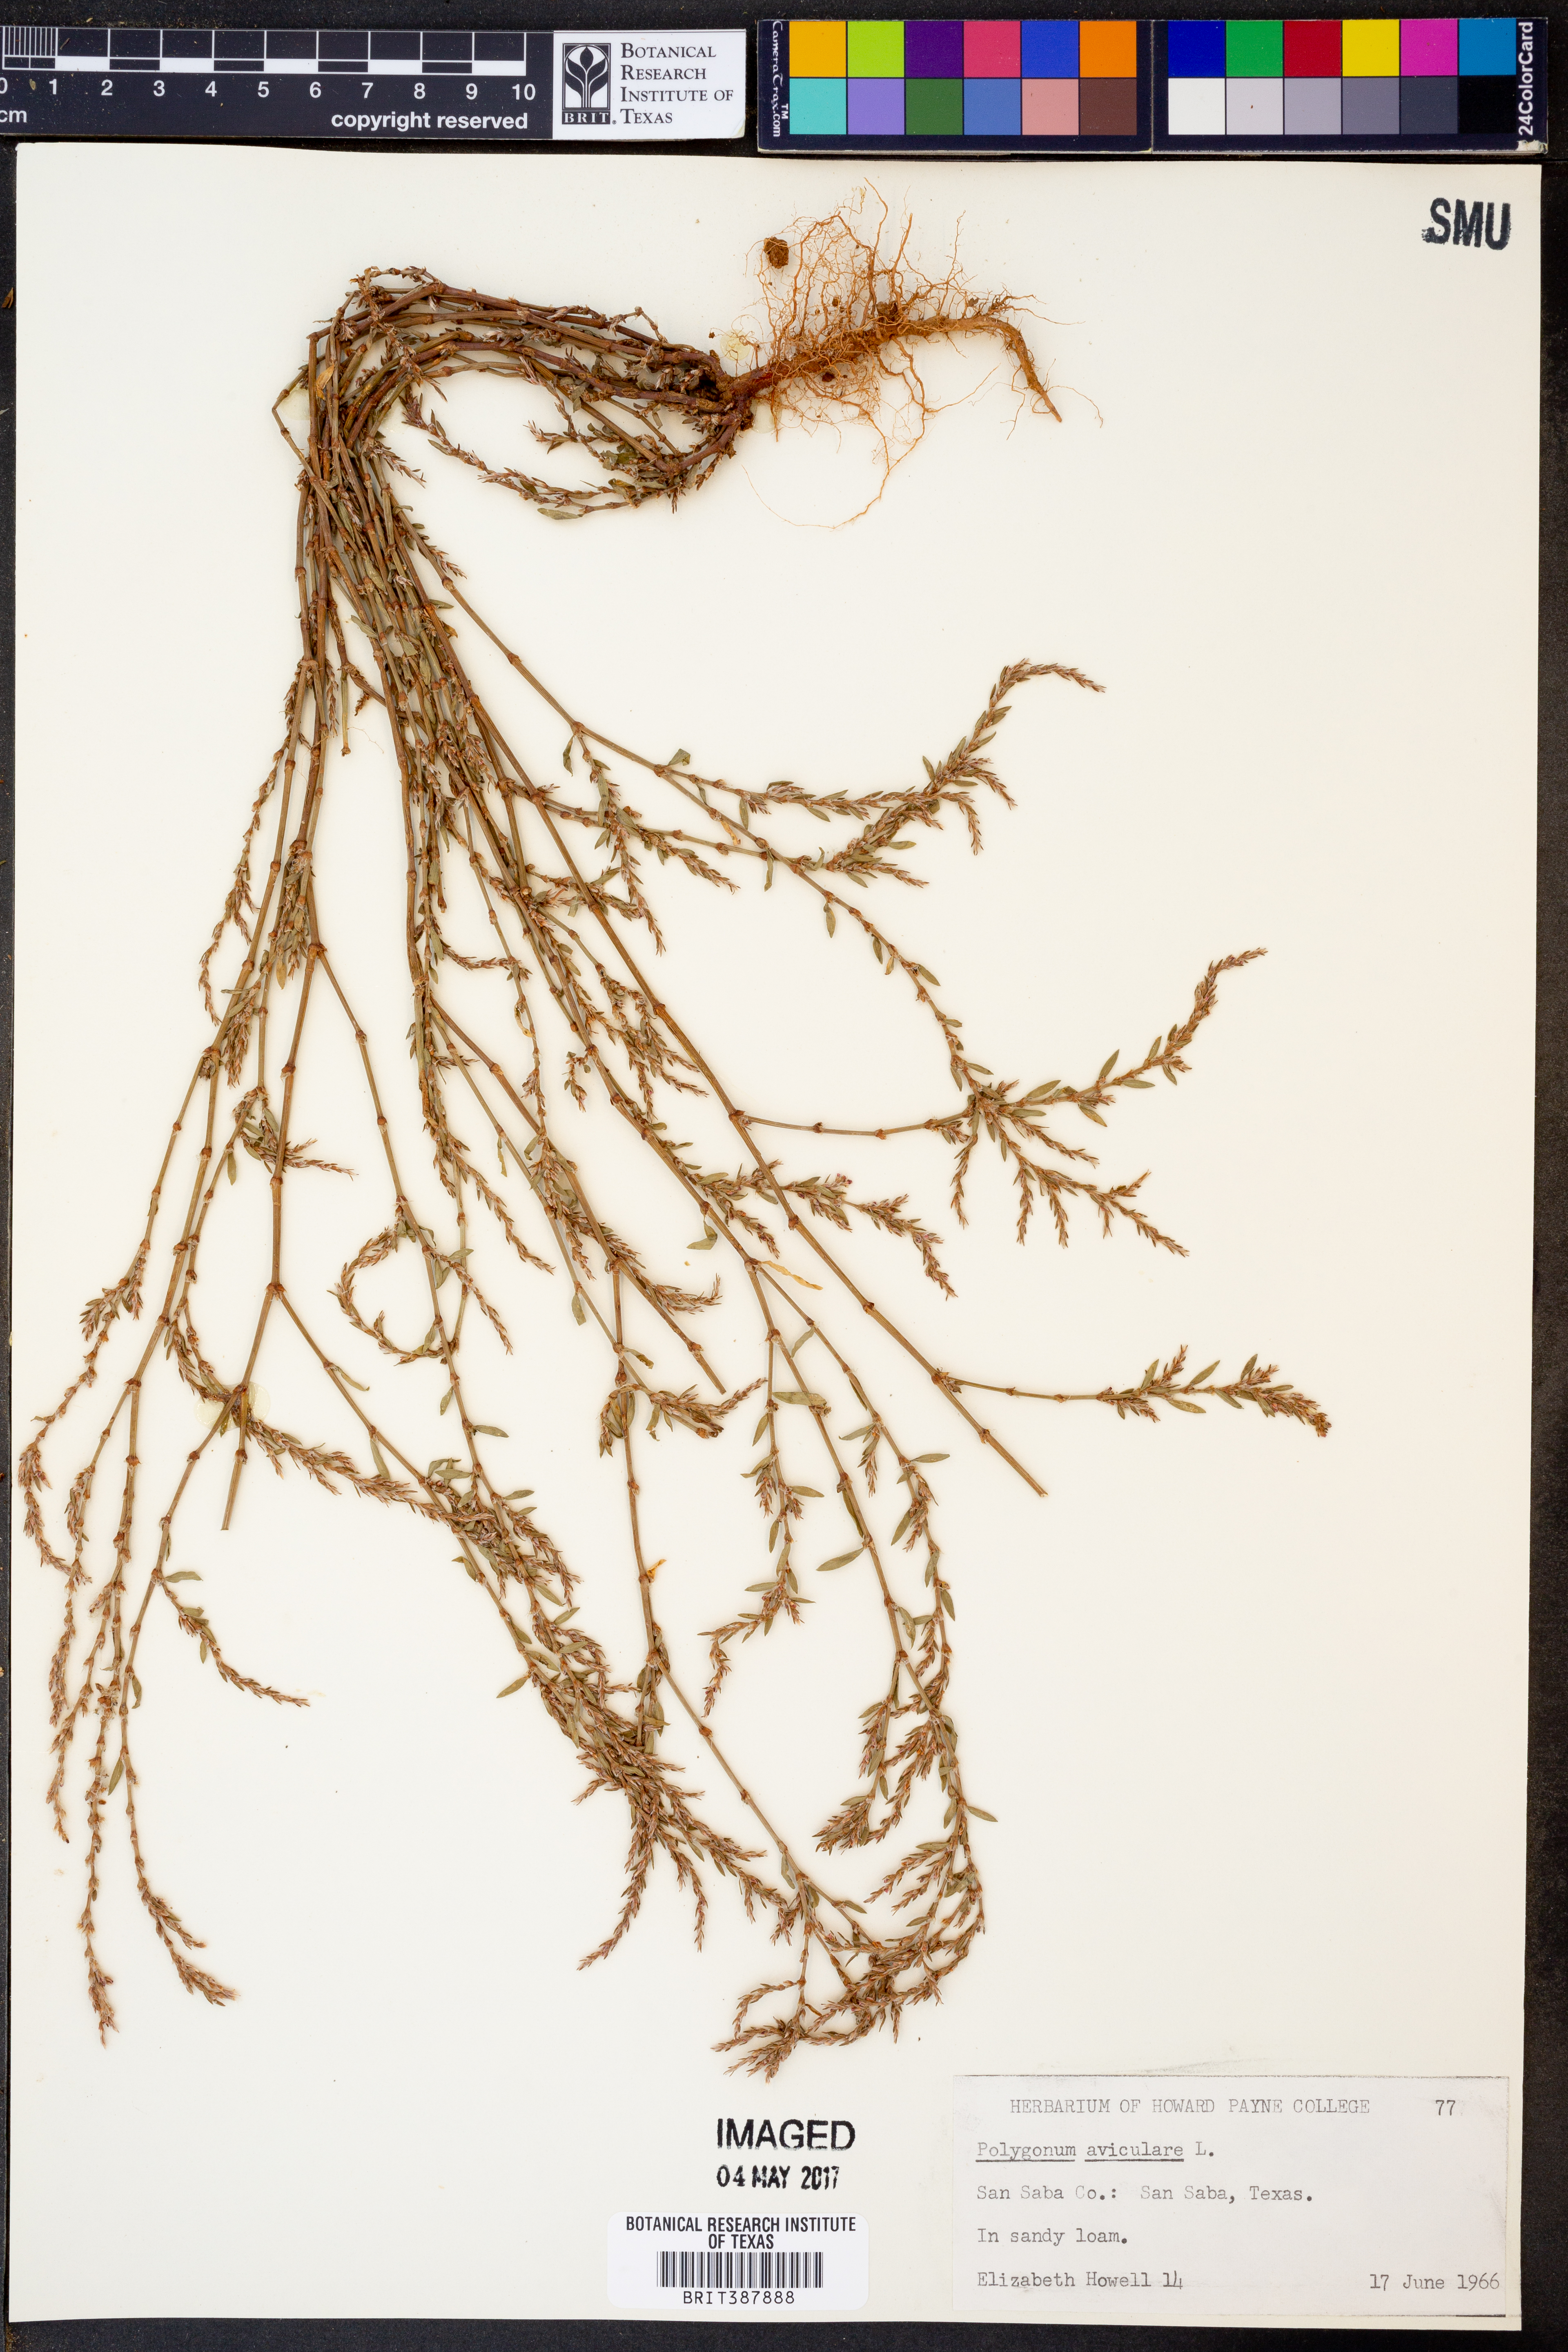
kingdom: Plantae
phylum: Tracheophyta
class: Magnoliopsida
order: Caryophyllales
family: Polygonaceae
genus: Polygonum
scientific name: Polygonum aviculare
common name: Prostrate knotweed
